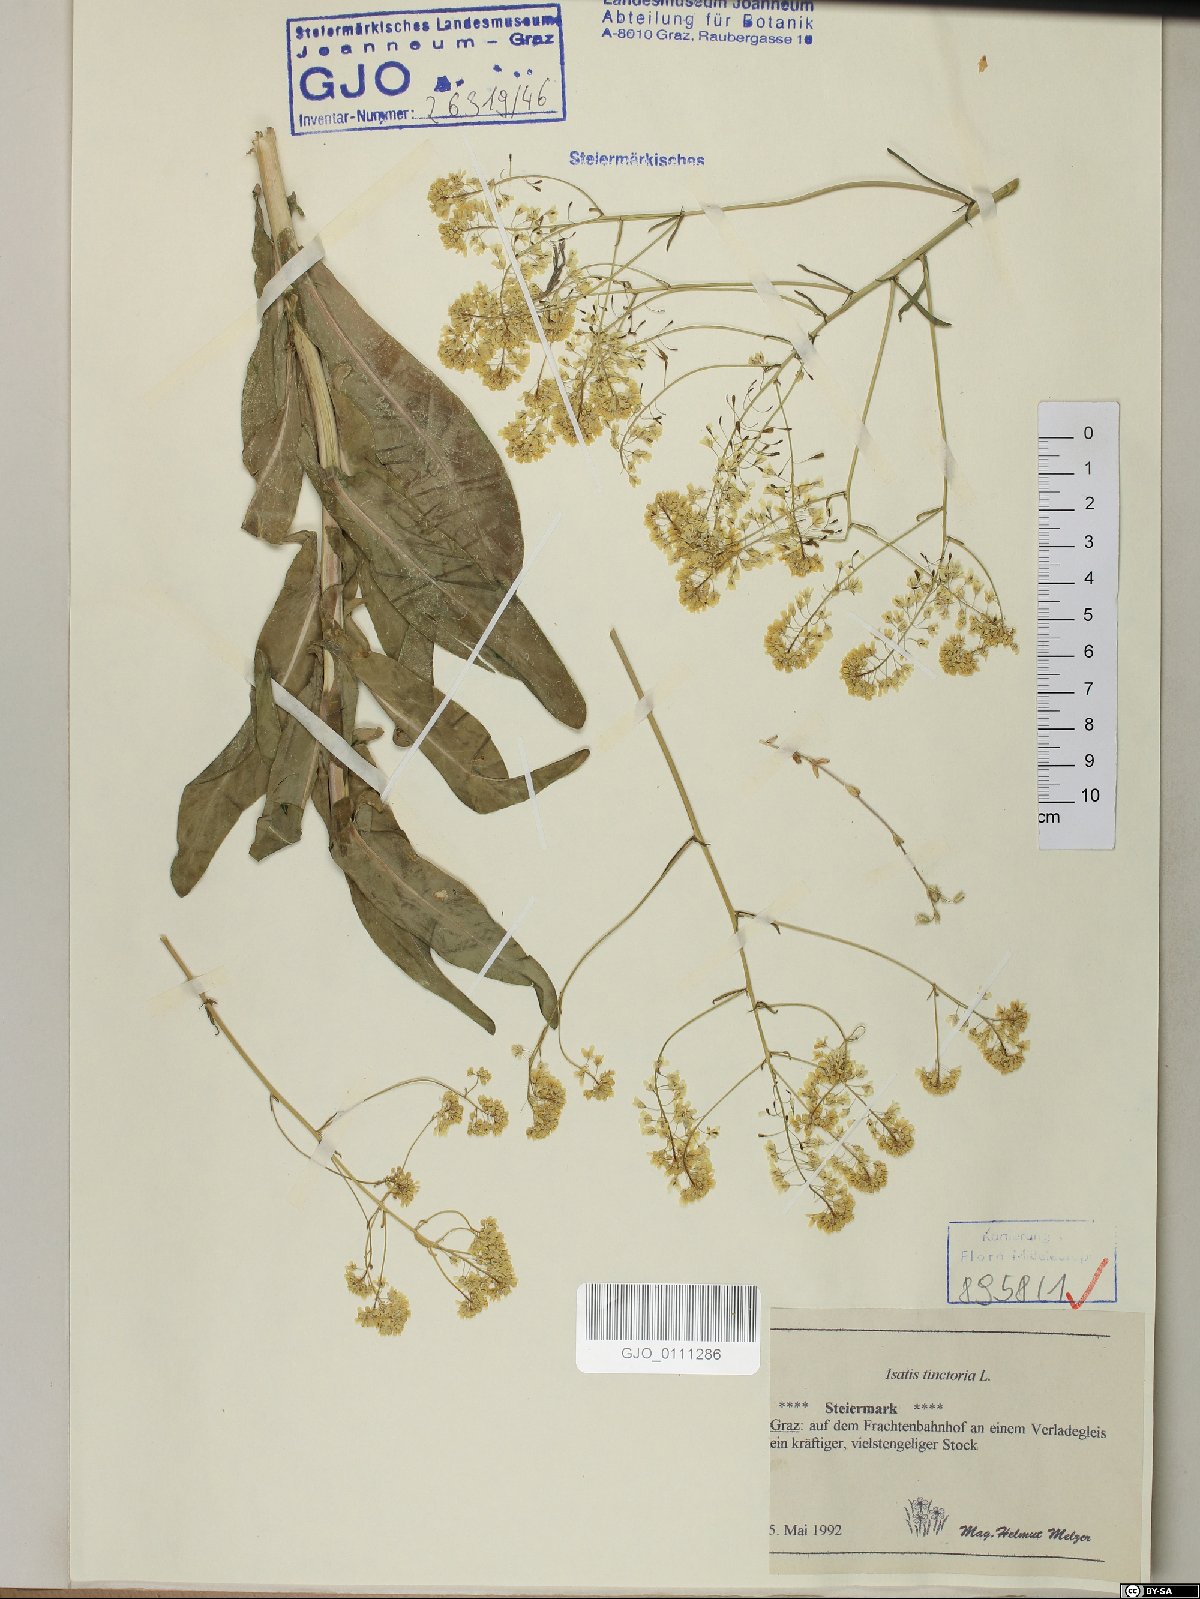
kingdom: Plantae
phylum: Tracheophyta
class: Magnoliopsida
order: Brassicales
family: Brassicaceae
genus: Isatis
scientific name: Isatis tinctoria
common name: Woad
